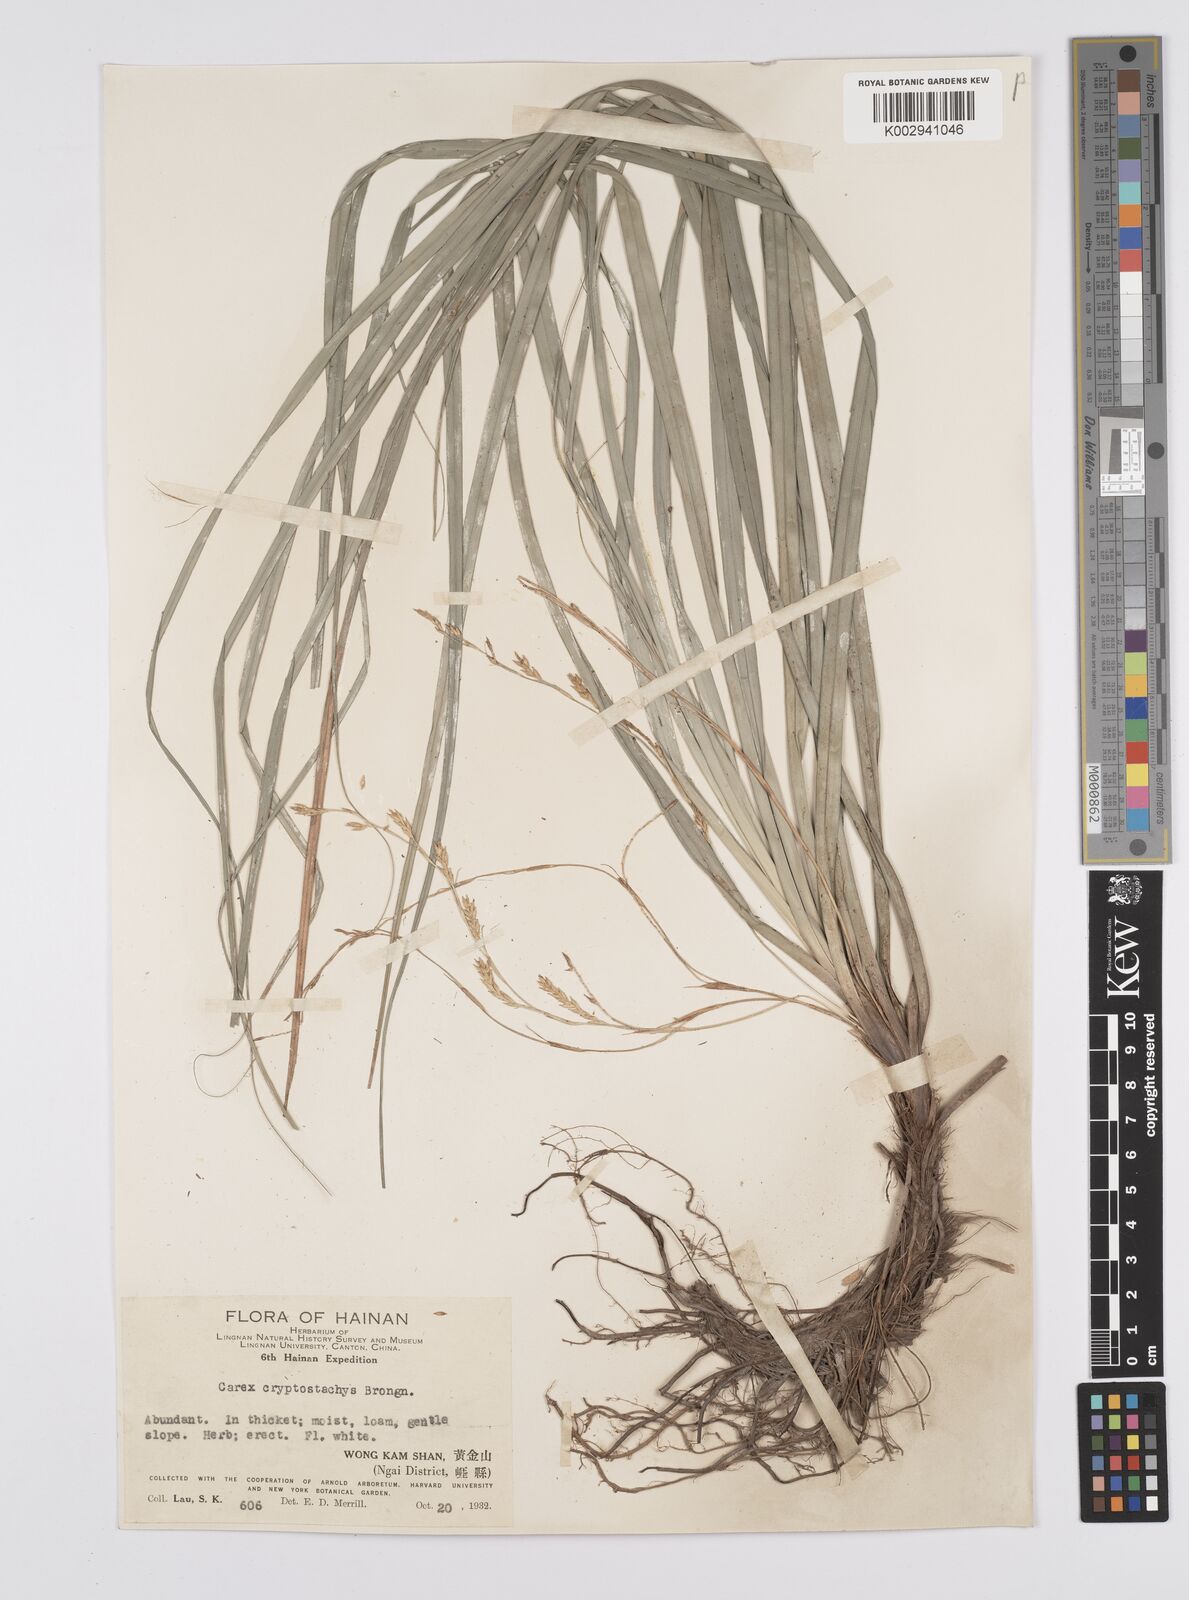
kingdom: Plantae
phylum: Tracheophyta
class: Liliopsida
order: Poales
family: Cyperaceae
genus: Carex
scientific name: Carex cryptostachys
